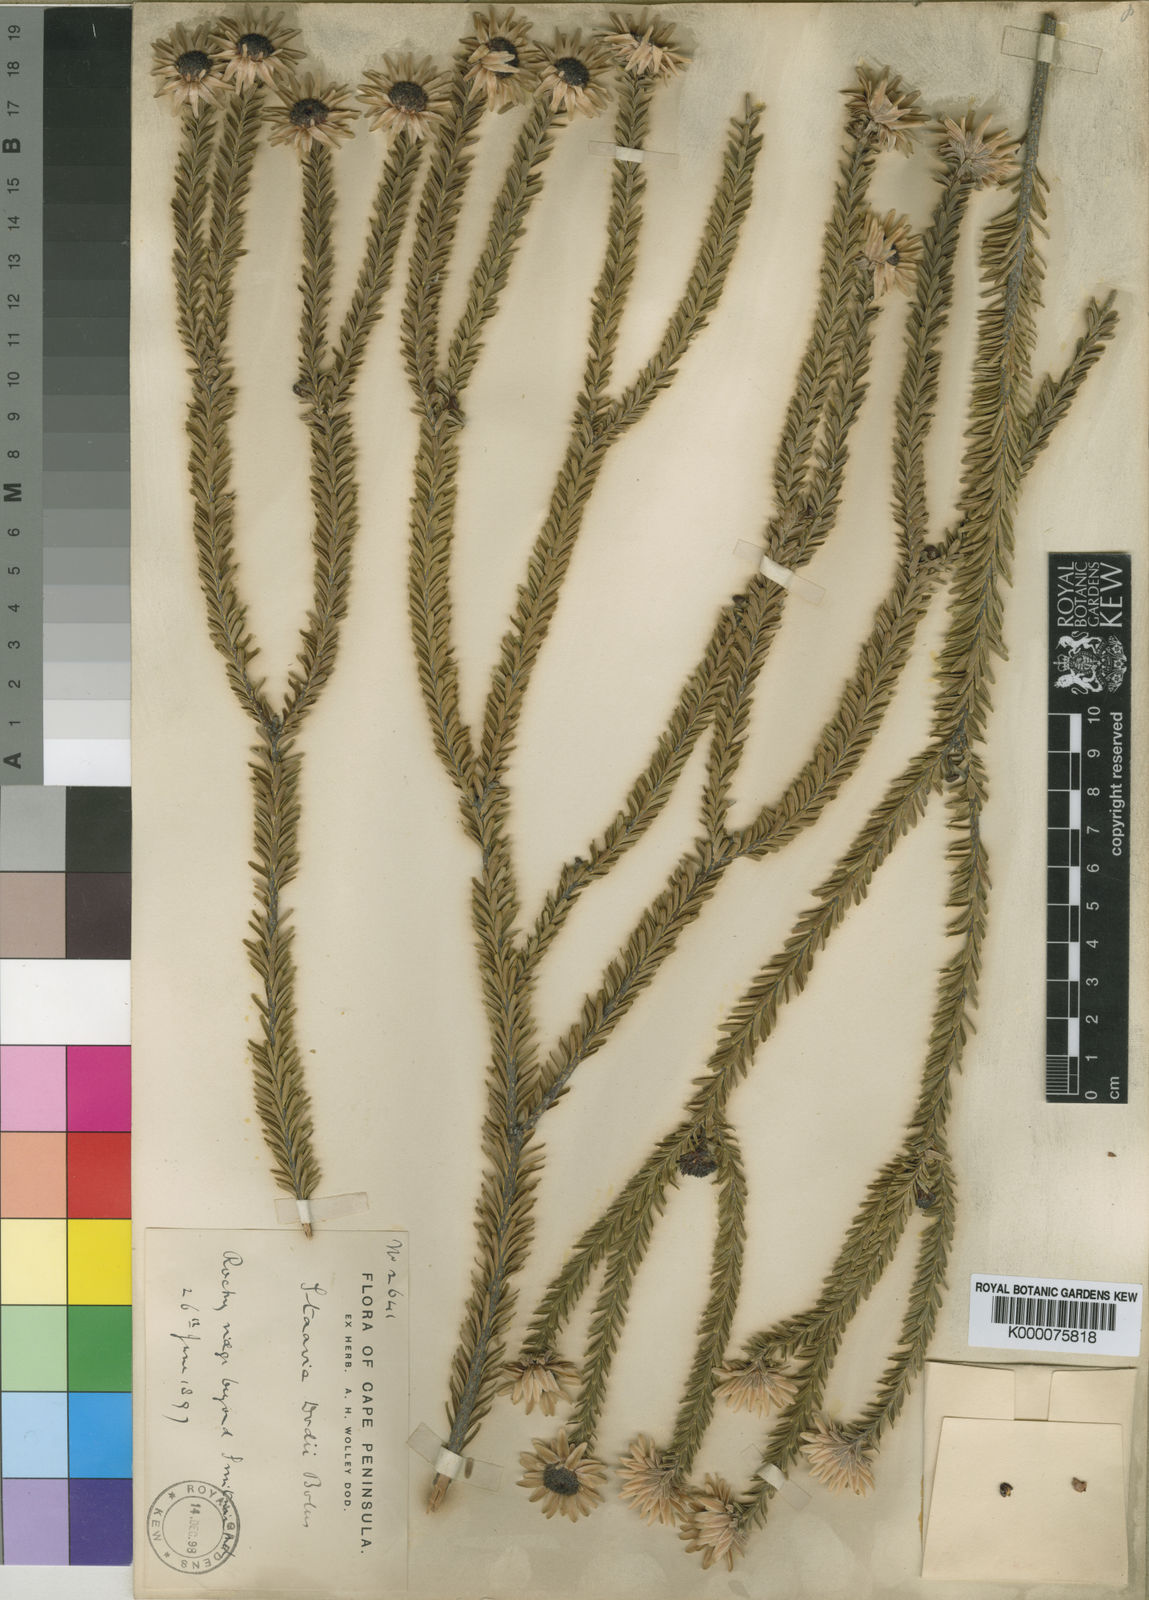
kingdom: Plantae
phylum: Tracheophyta
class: Magnoliopsida
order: Bruniales
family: Bruniaceae
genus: Staavia
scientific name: Staavia dodii
